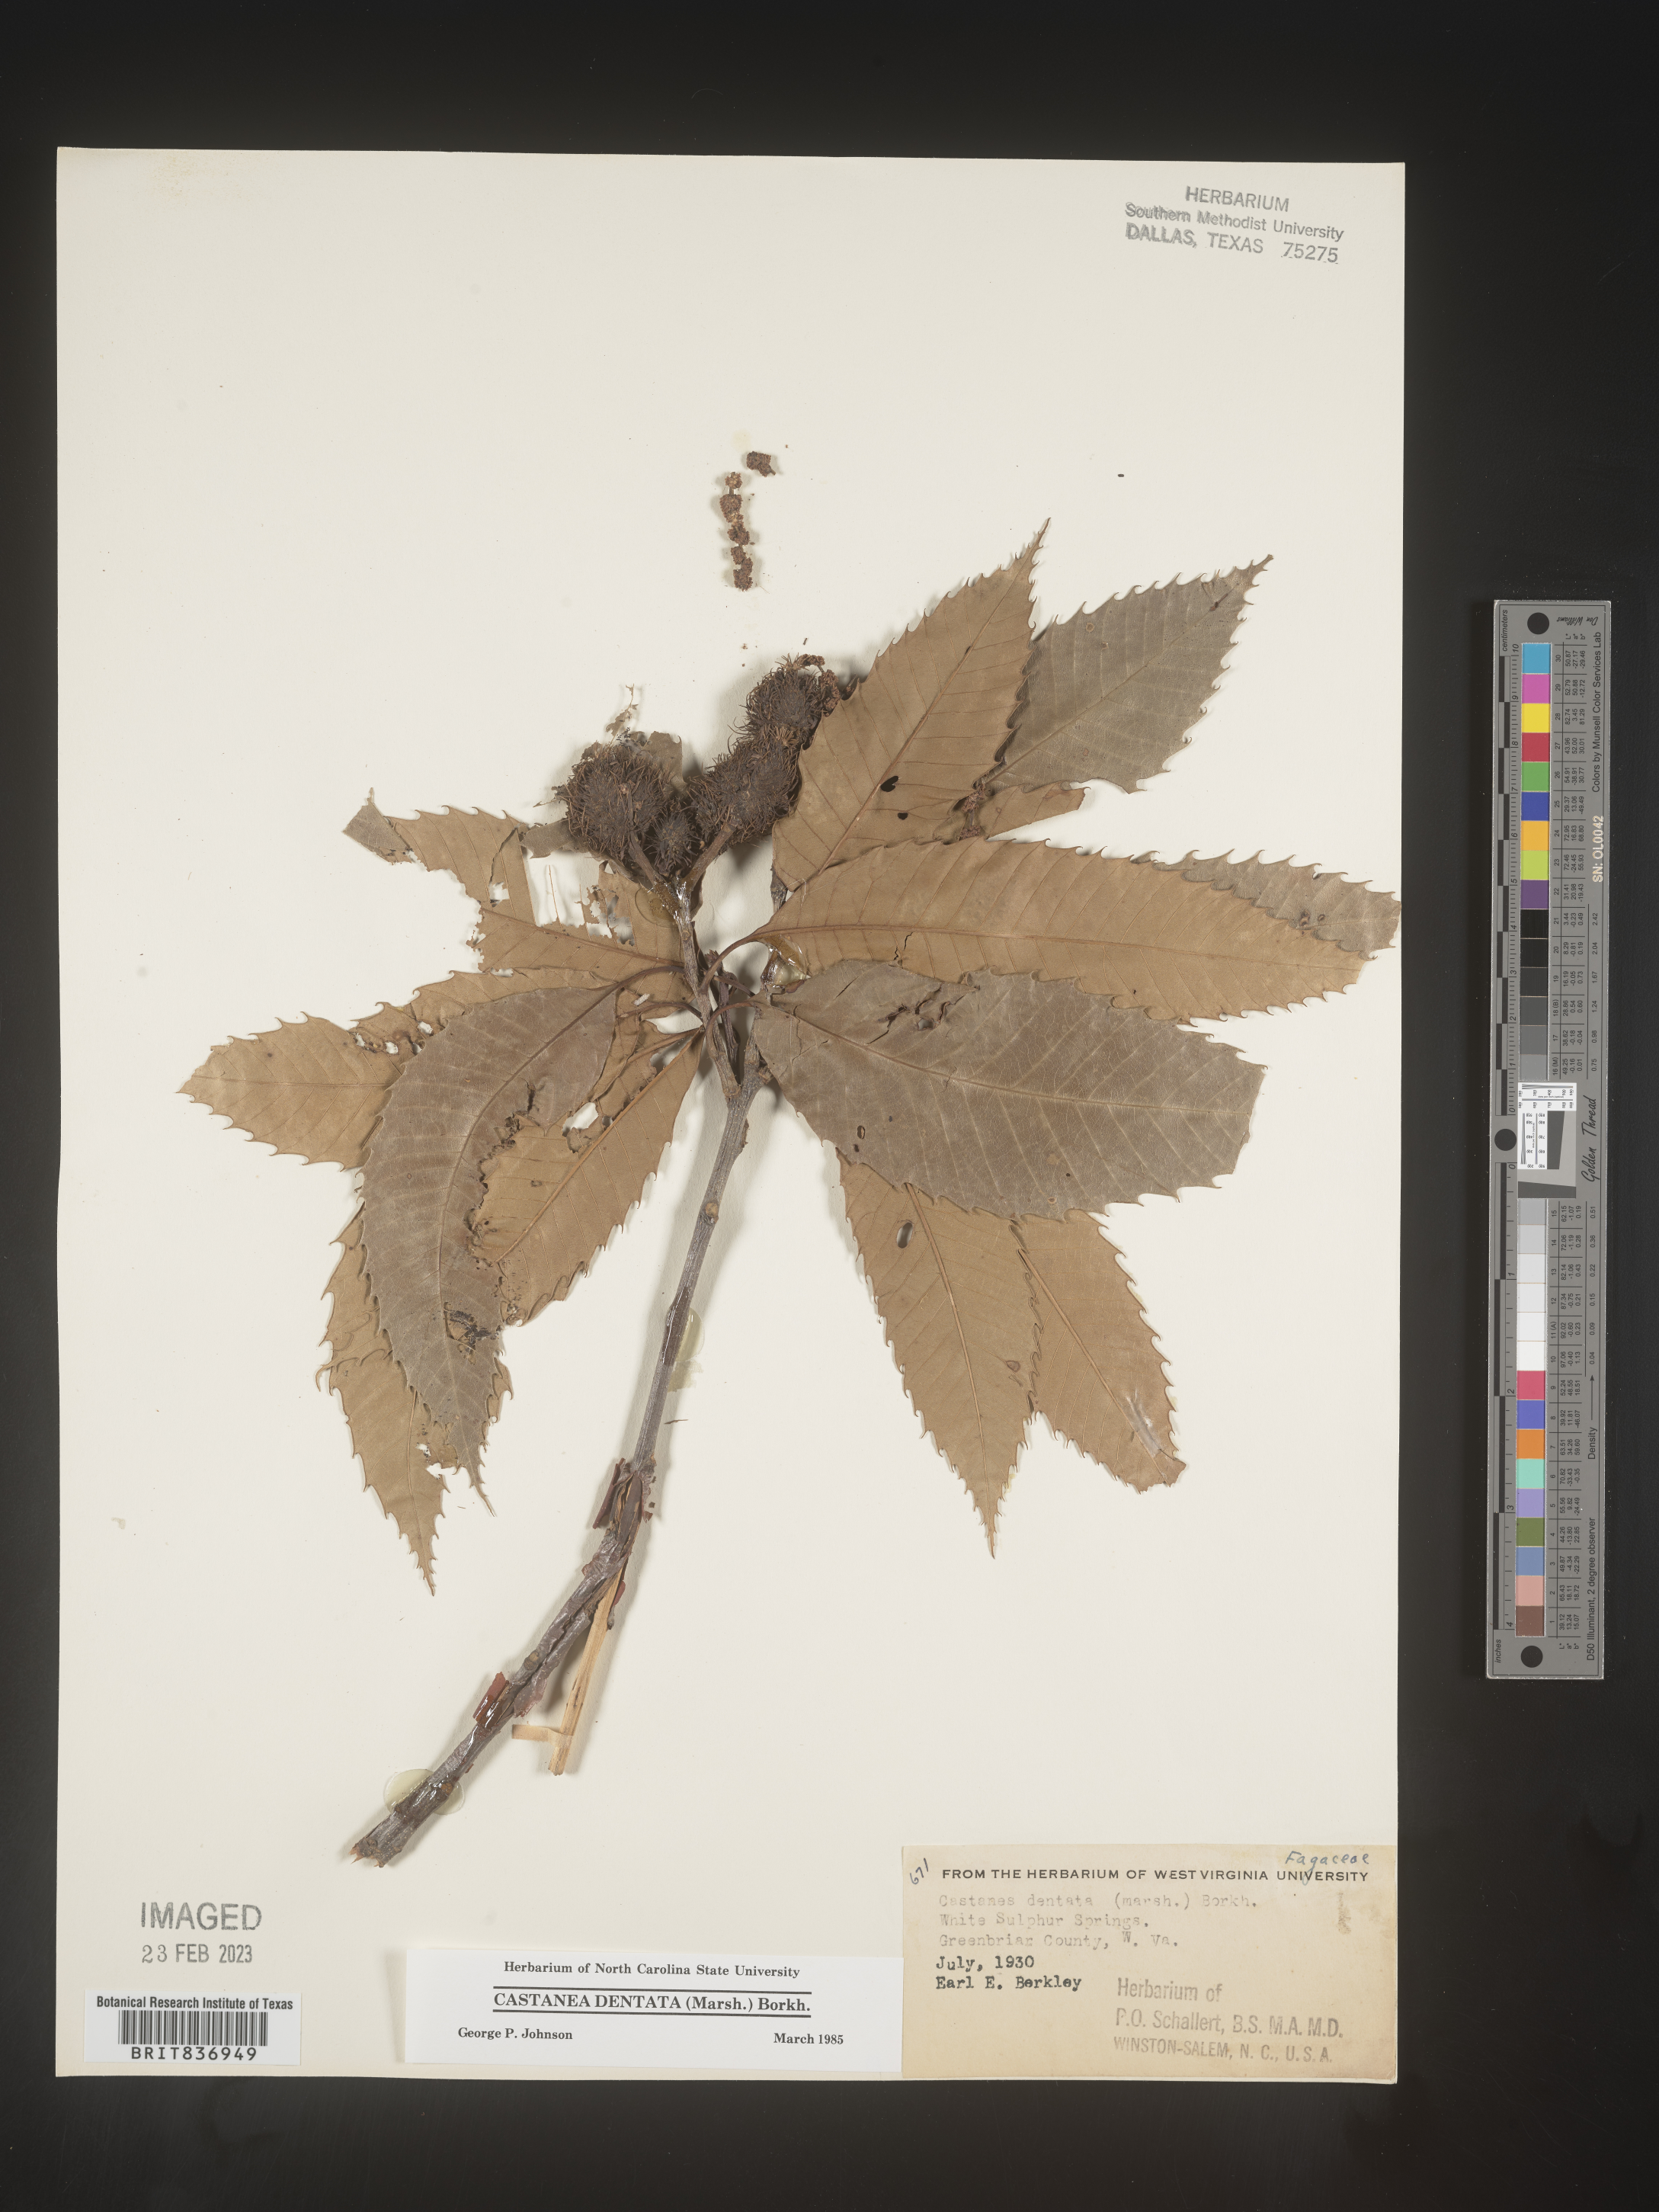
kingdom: Plantae
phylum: Tracheophyta
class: Magnoliopsida
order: Fagales
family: Fagaceae
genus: Castanea
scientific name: Castanea dentata
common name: American chestnut
